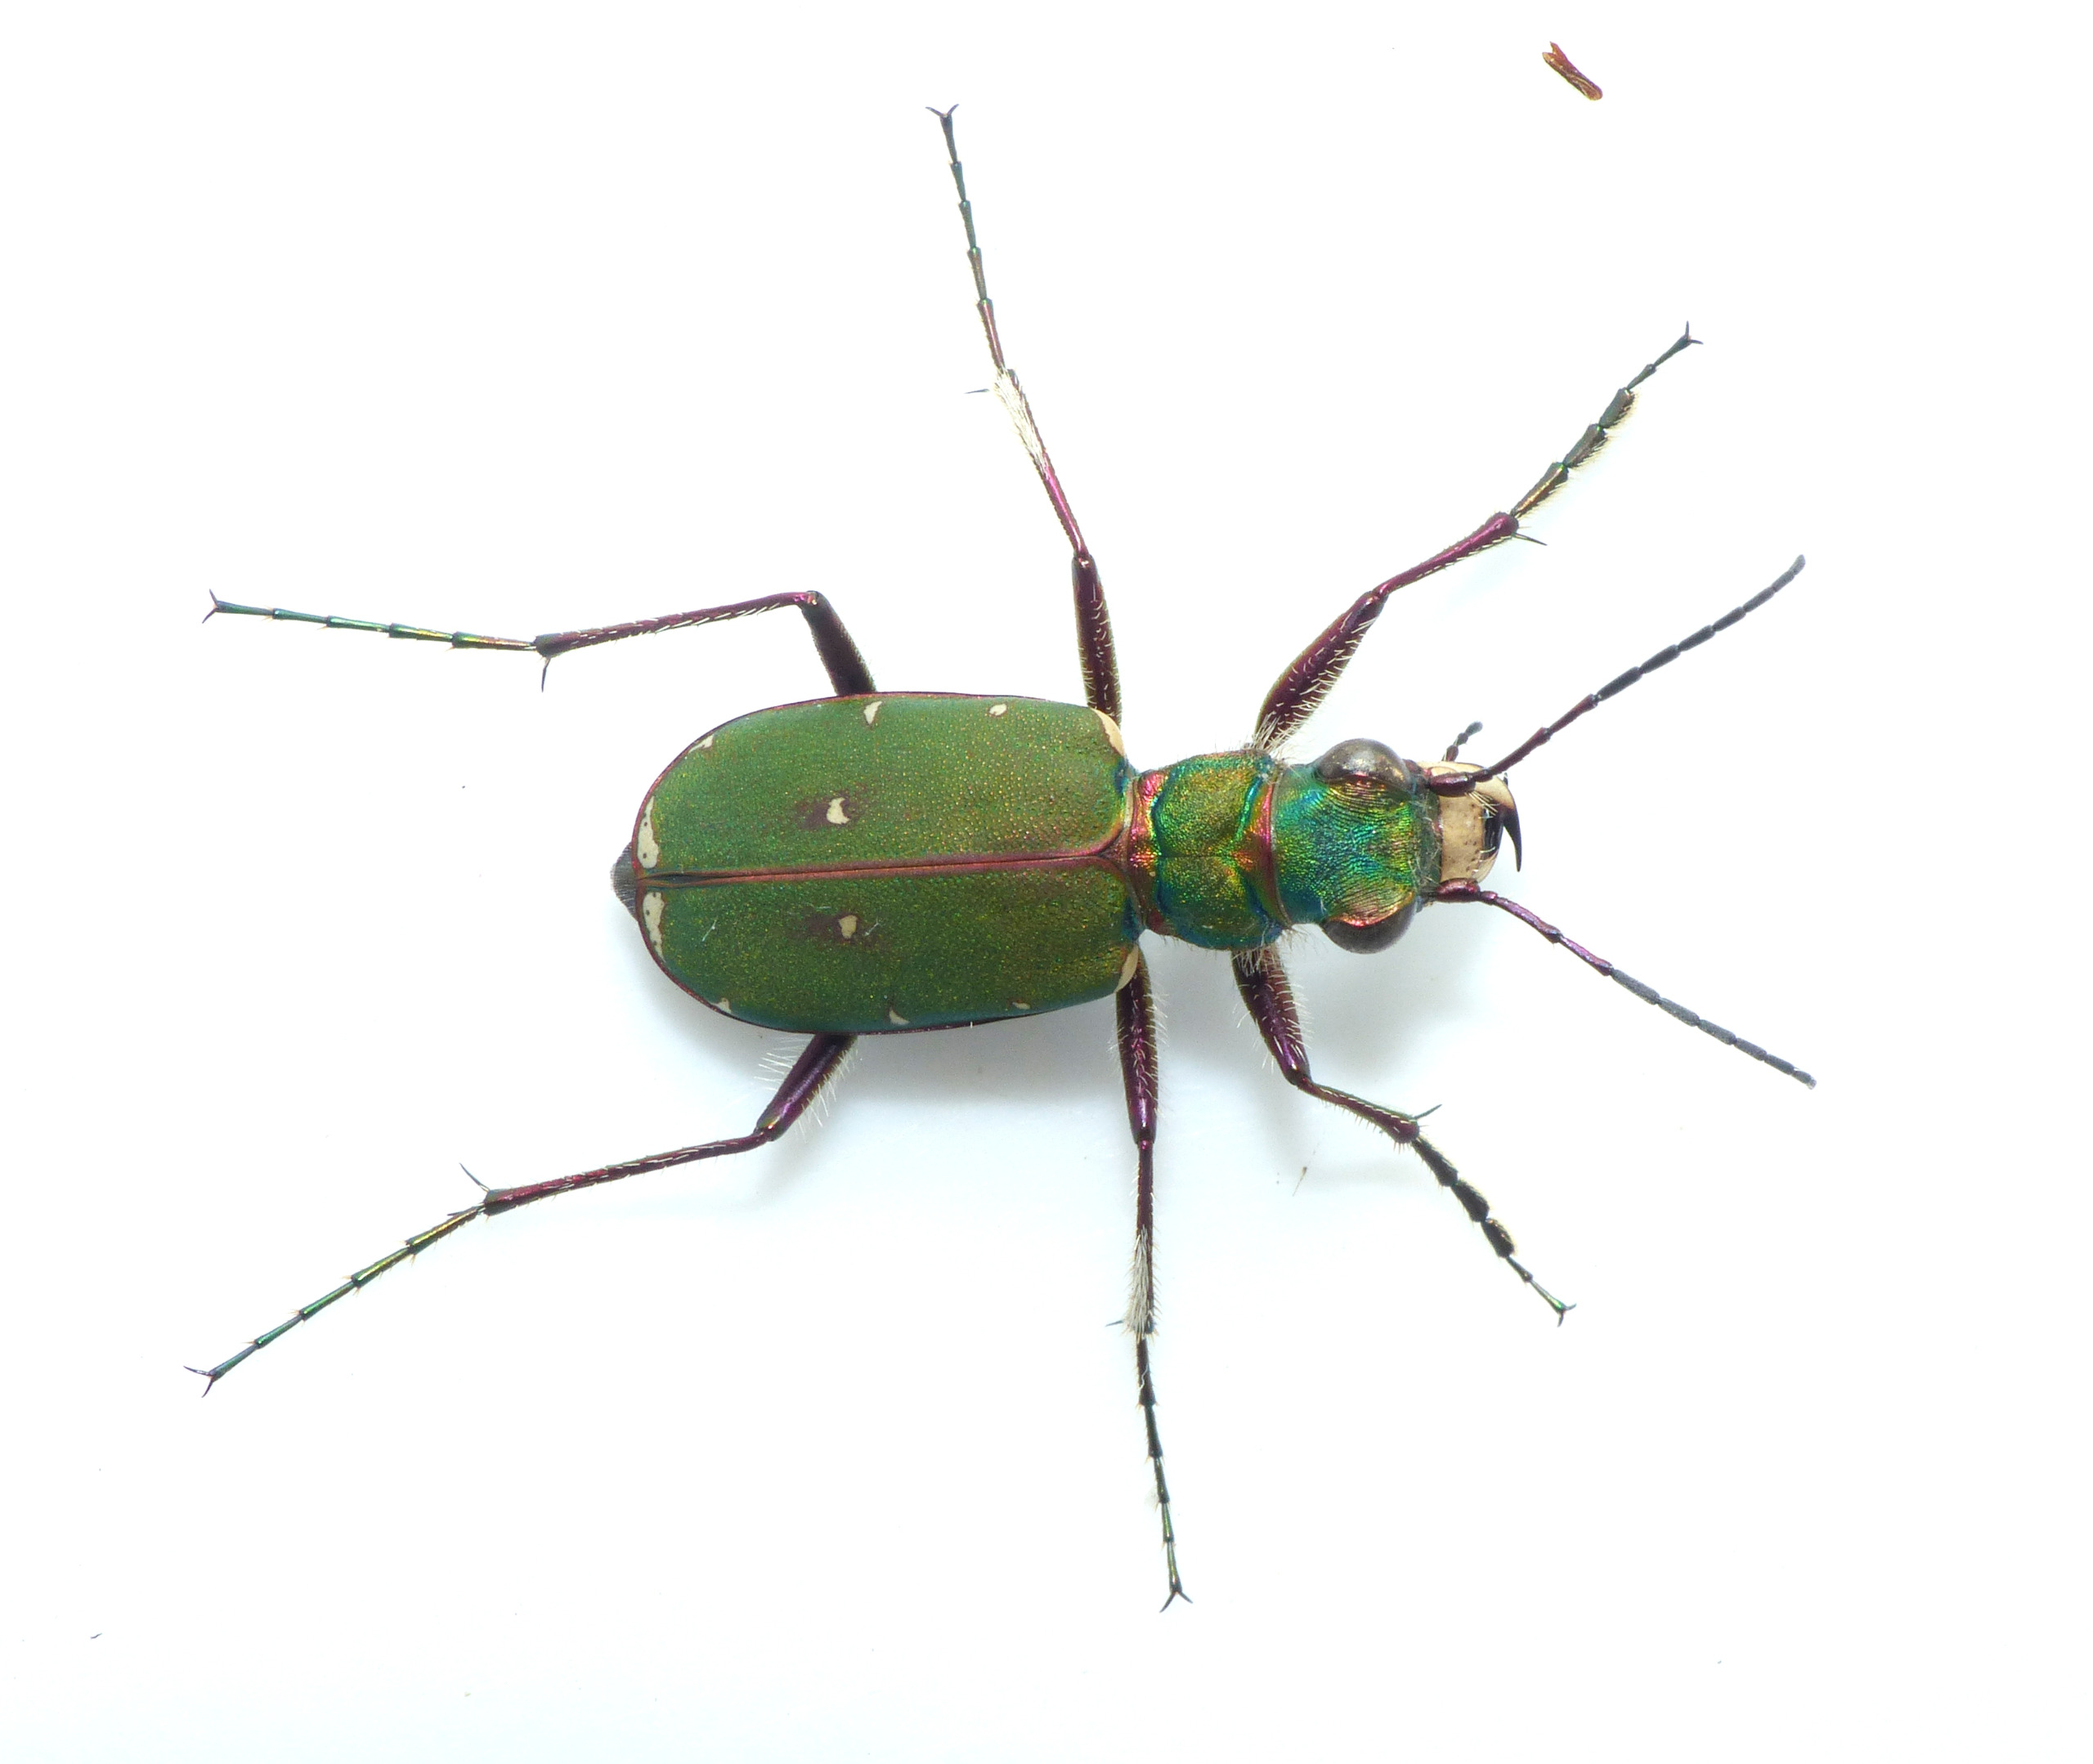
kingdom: Animalia
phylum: Arthropoda
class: Insecta
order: Coleoptera
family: Carabidae
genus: Cicindela
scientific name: Cicindela campestris
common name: Grøn sandspringer
